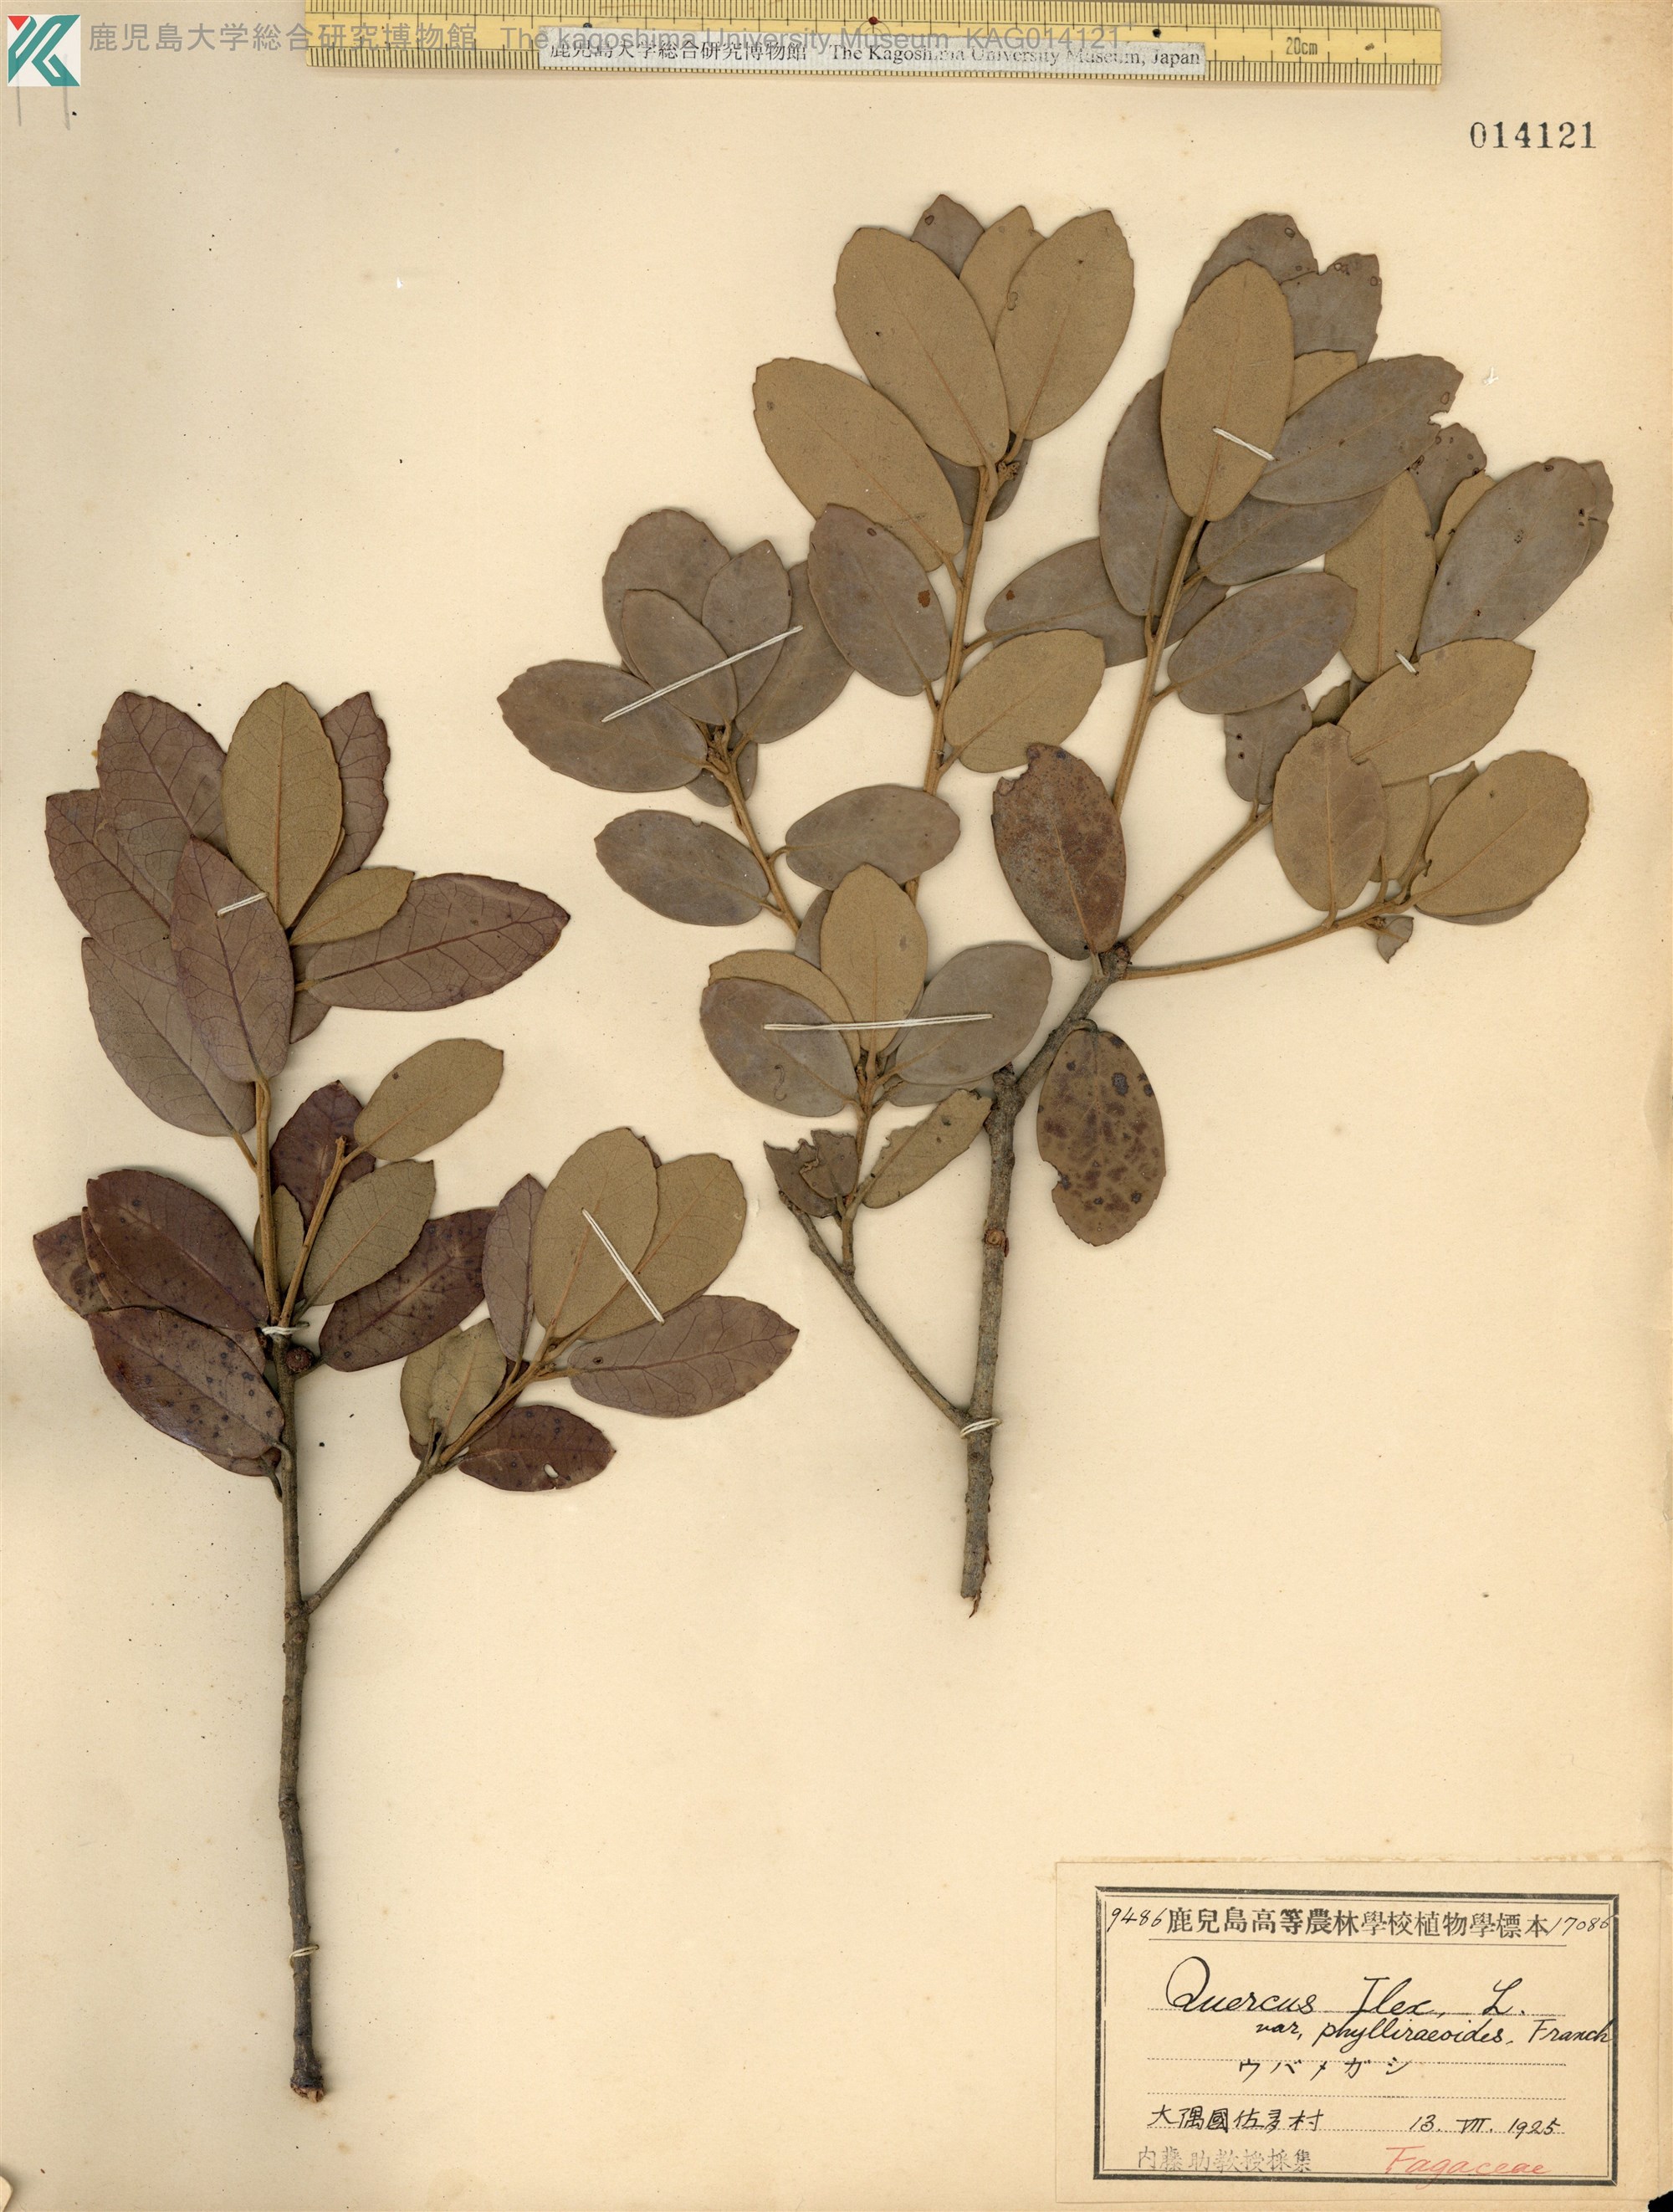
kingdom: Plantae
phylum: Tracheophyta
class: Magnoliopsida
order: Fagales
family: Fagaceae
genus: Quercus
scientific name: Quercus phillyreoides
